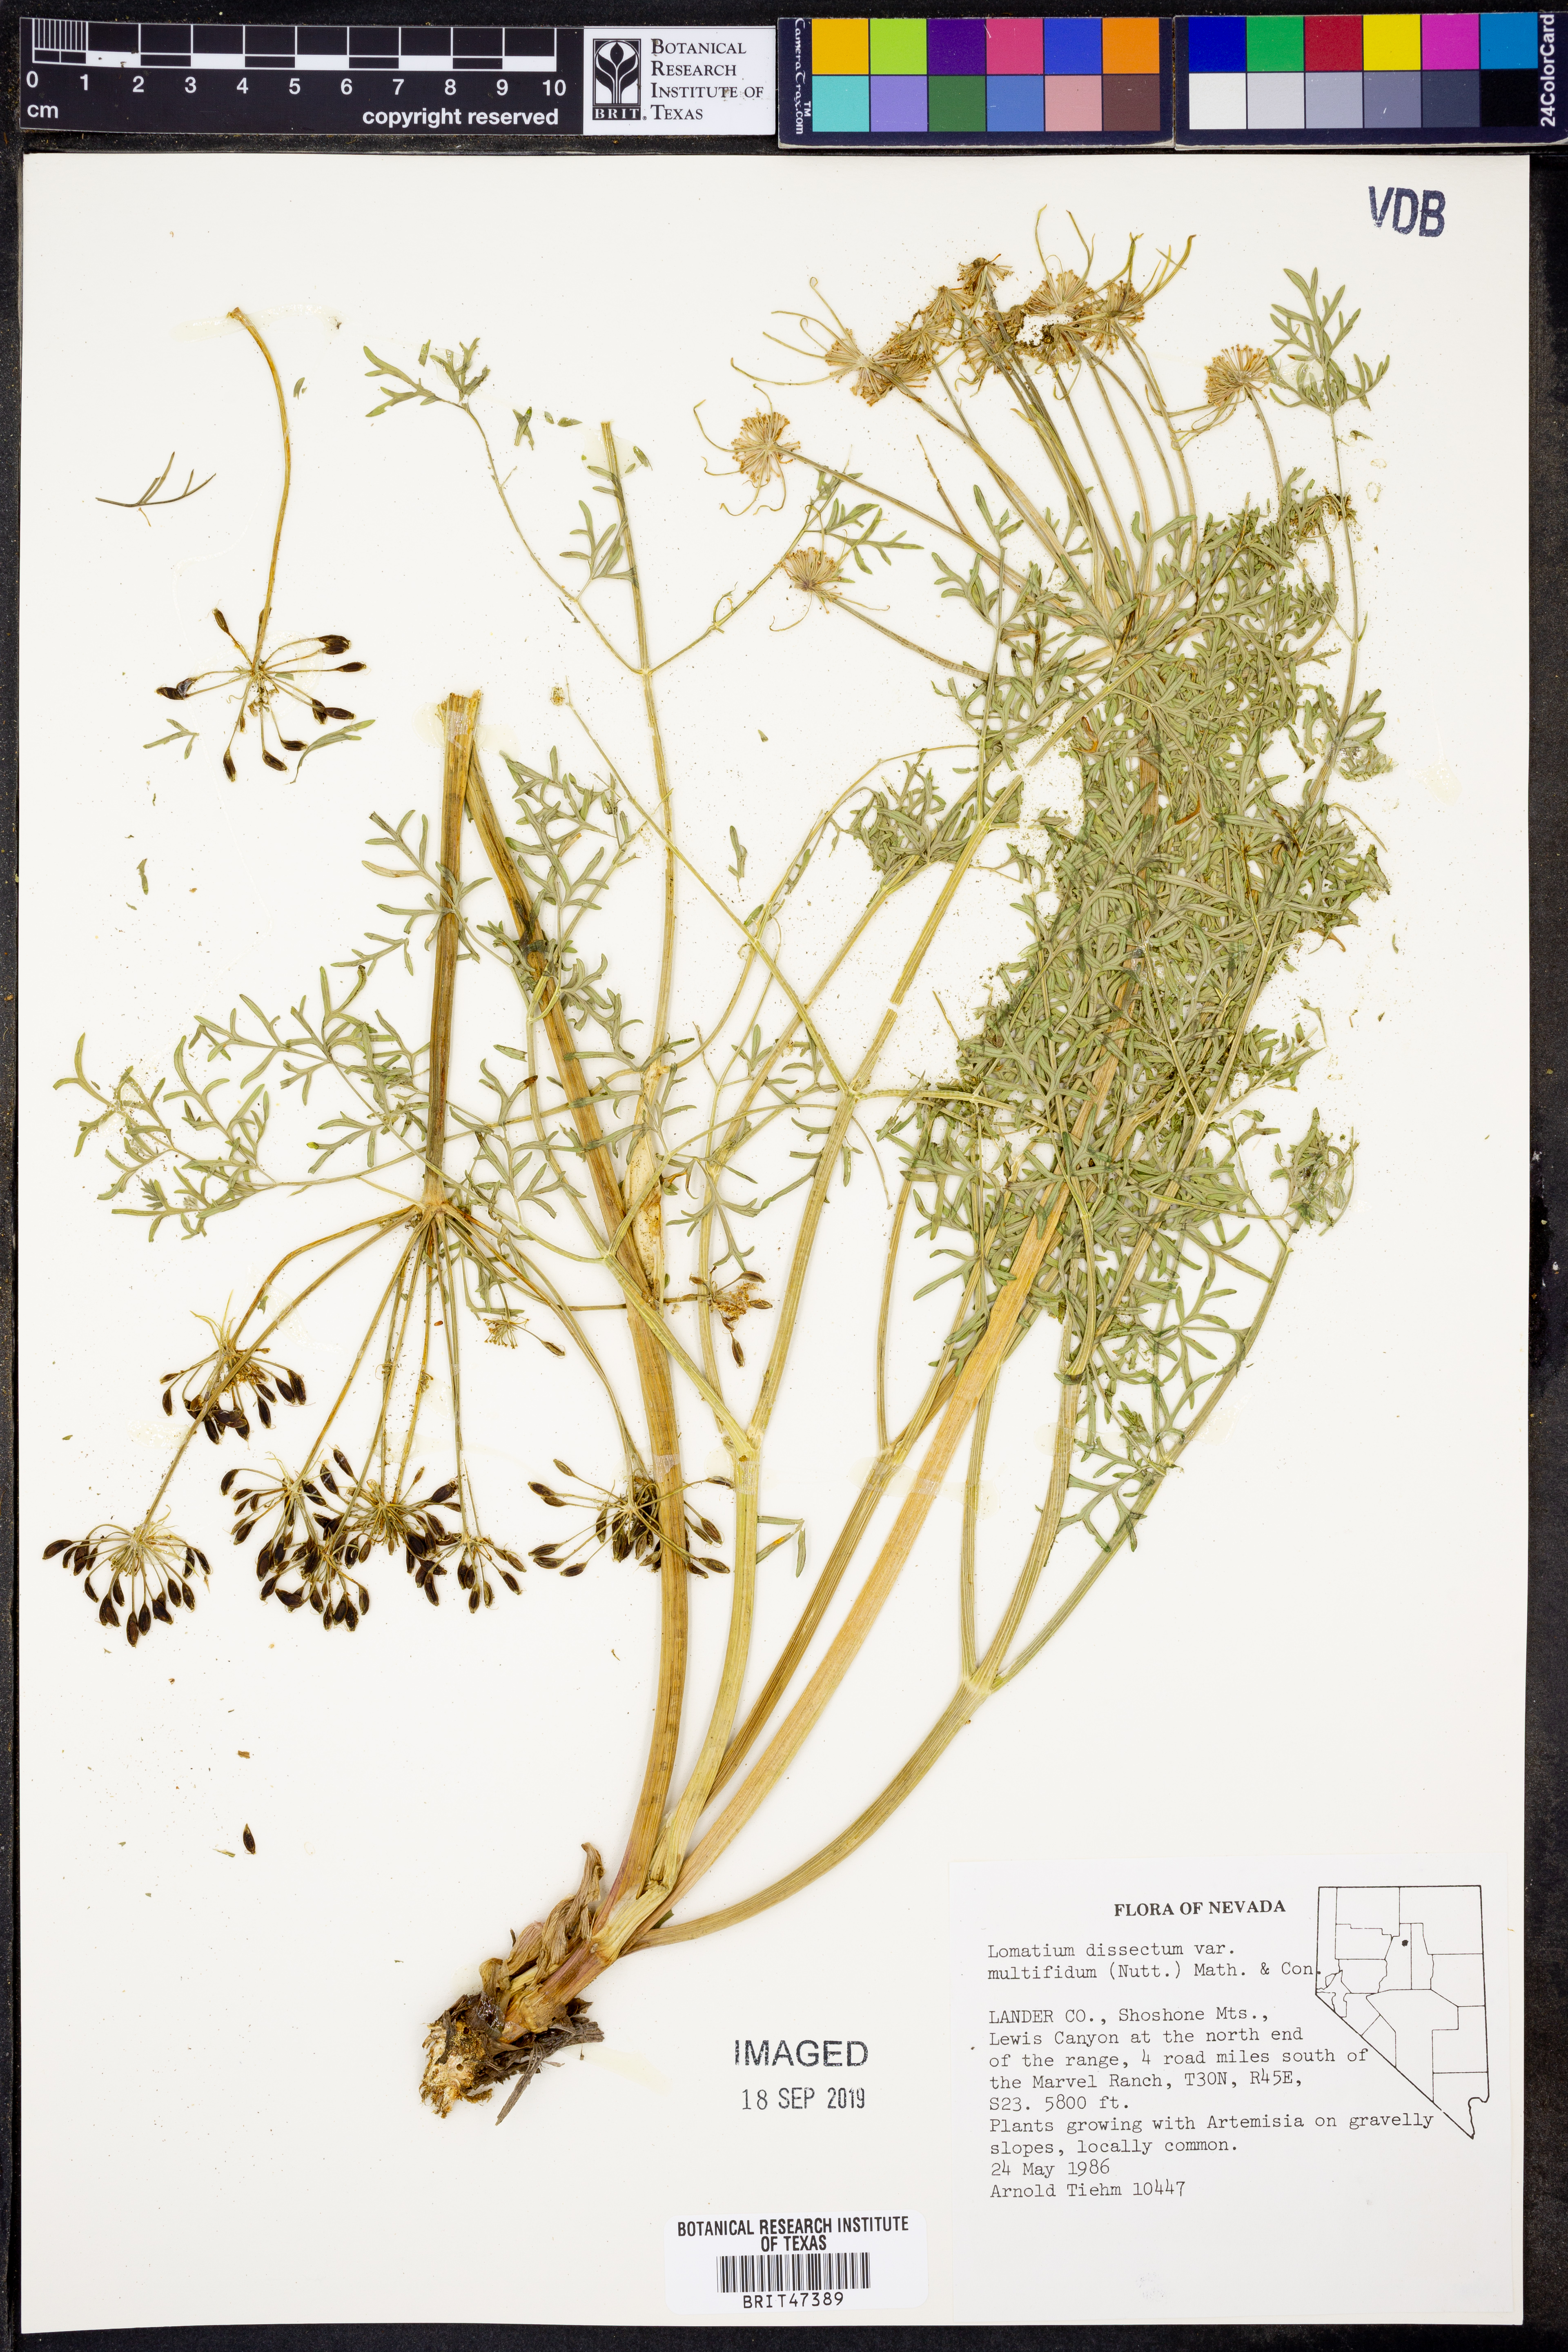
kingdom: Plantae
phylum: Tracheophyta
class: Magnoliopsida
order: Apiales
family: Apiaceae
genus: Lomatium
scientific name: Lomatium multifidum
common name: Carrot-leaved biscuitroot
